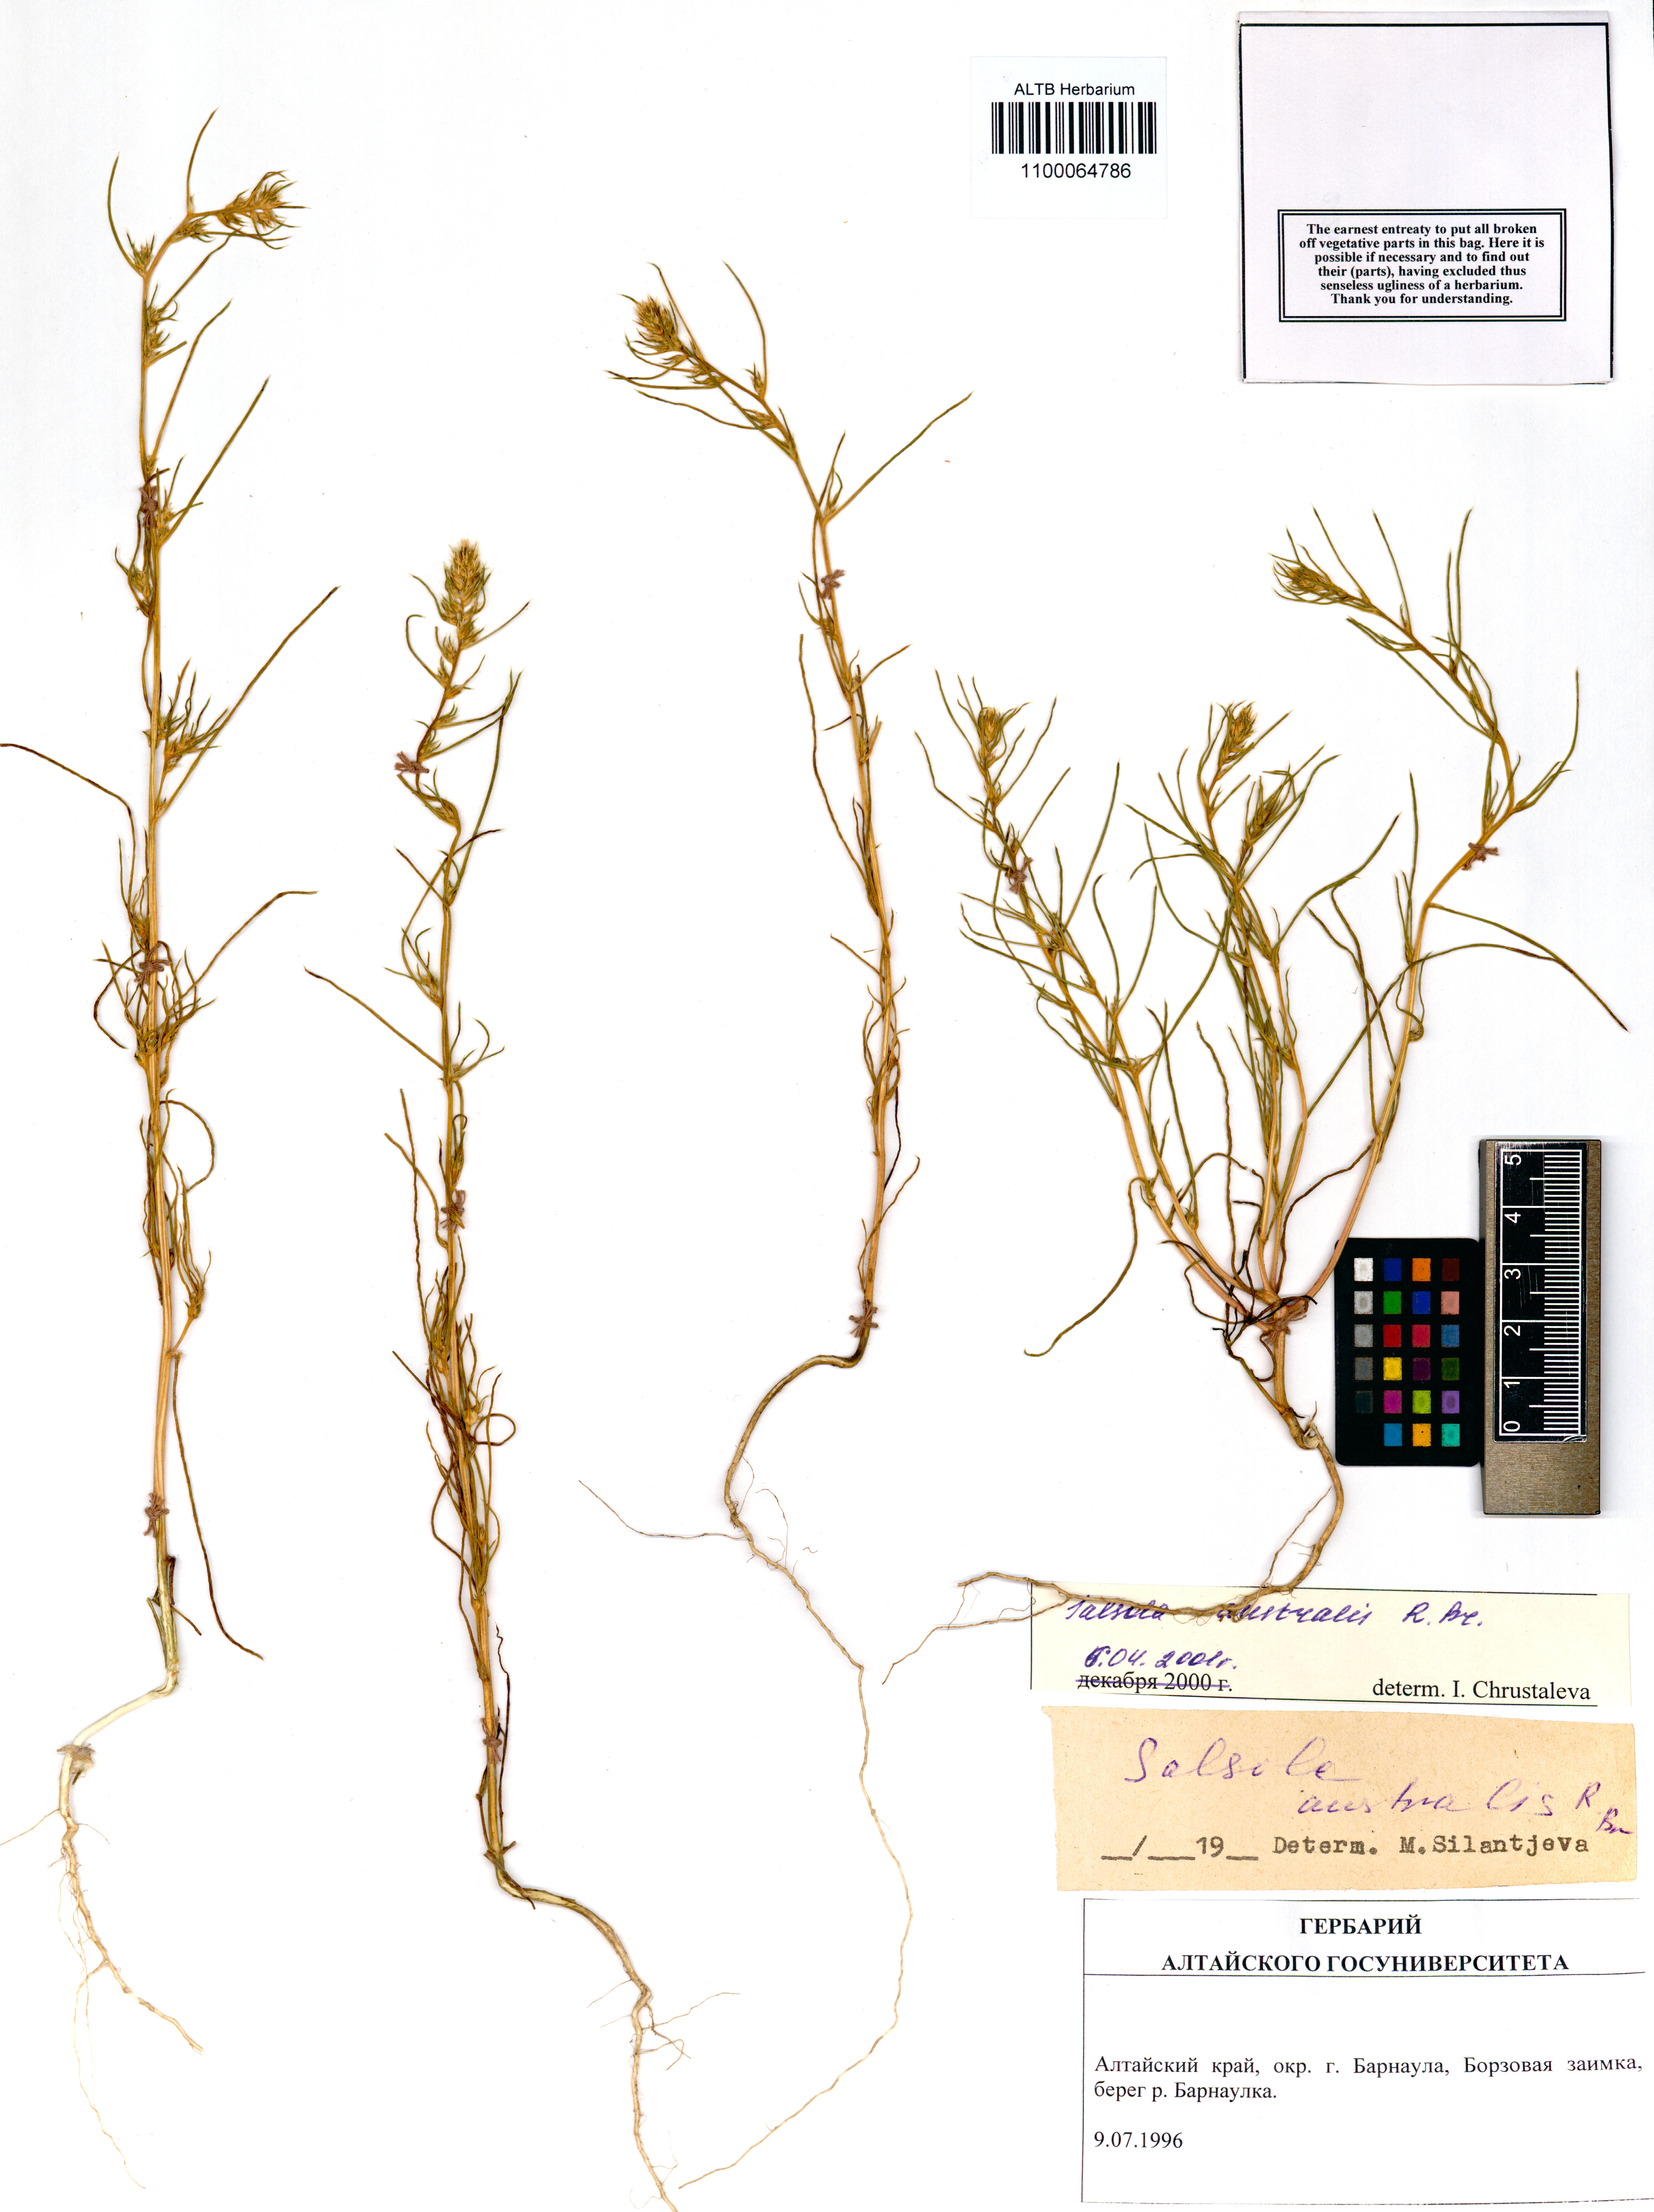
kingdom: Plantae
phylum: Tracheophyta
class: Magnoliopsida
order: Caryophyllales
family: Amaranthaceae
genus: Salsola
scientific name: Salsola australis
